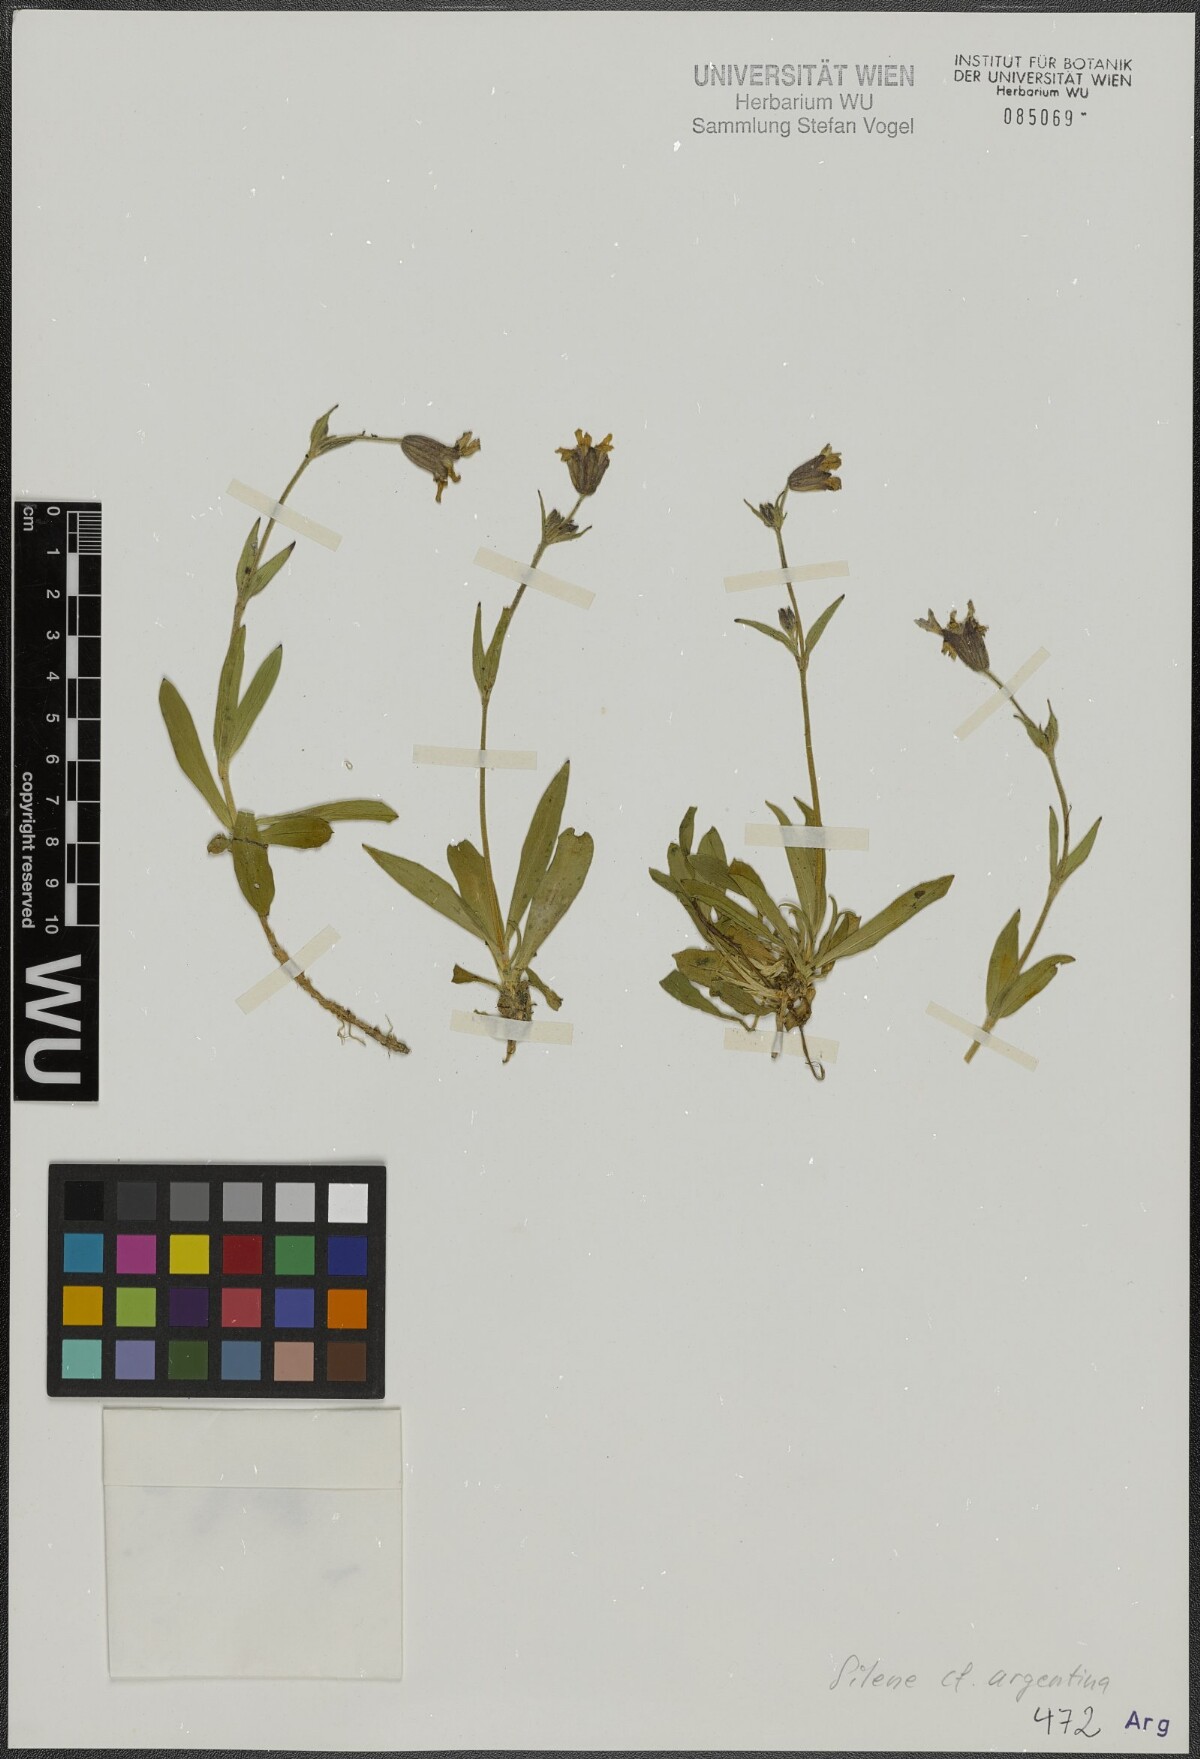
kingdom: Plantae
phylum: Tracheophyta
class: Magnoliopsida
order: Caryophyllales
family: Caryophyllaceae
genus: Silene
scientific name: Silene andicola
